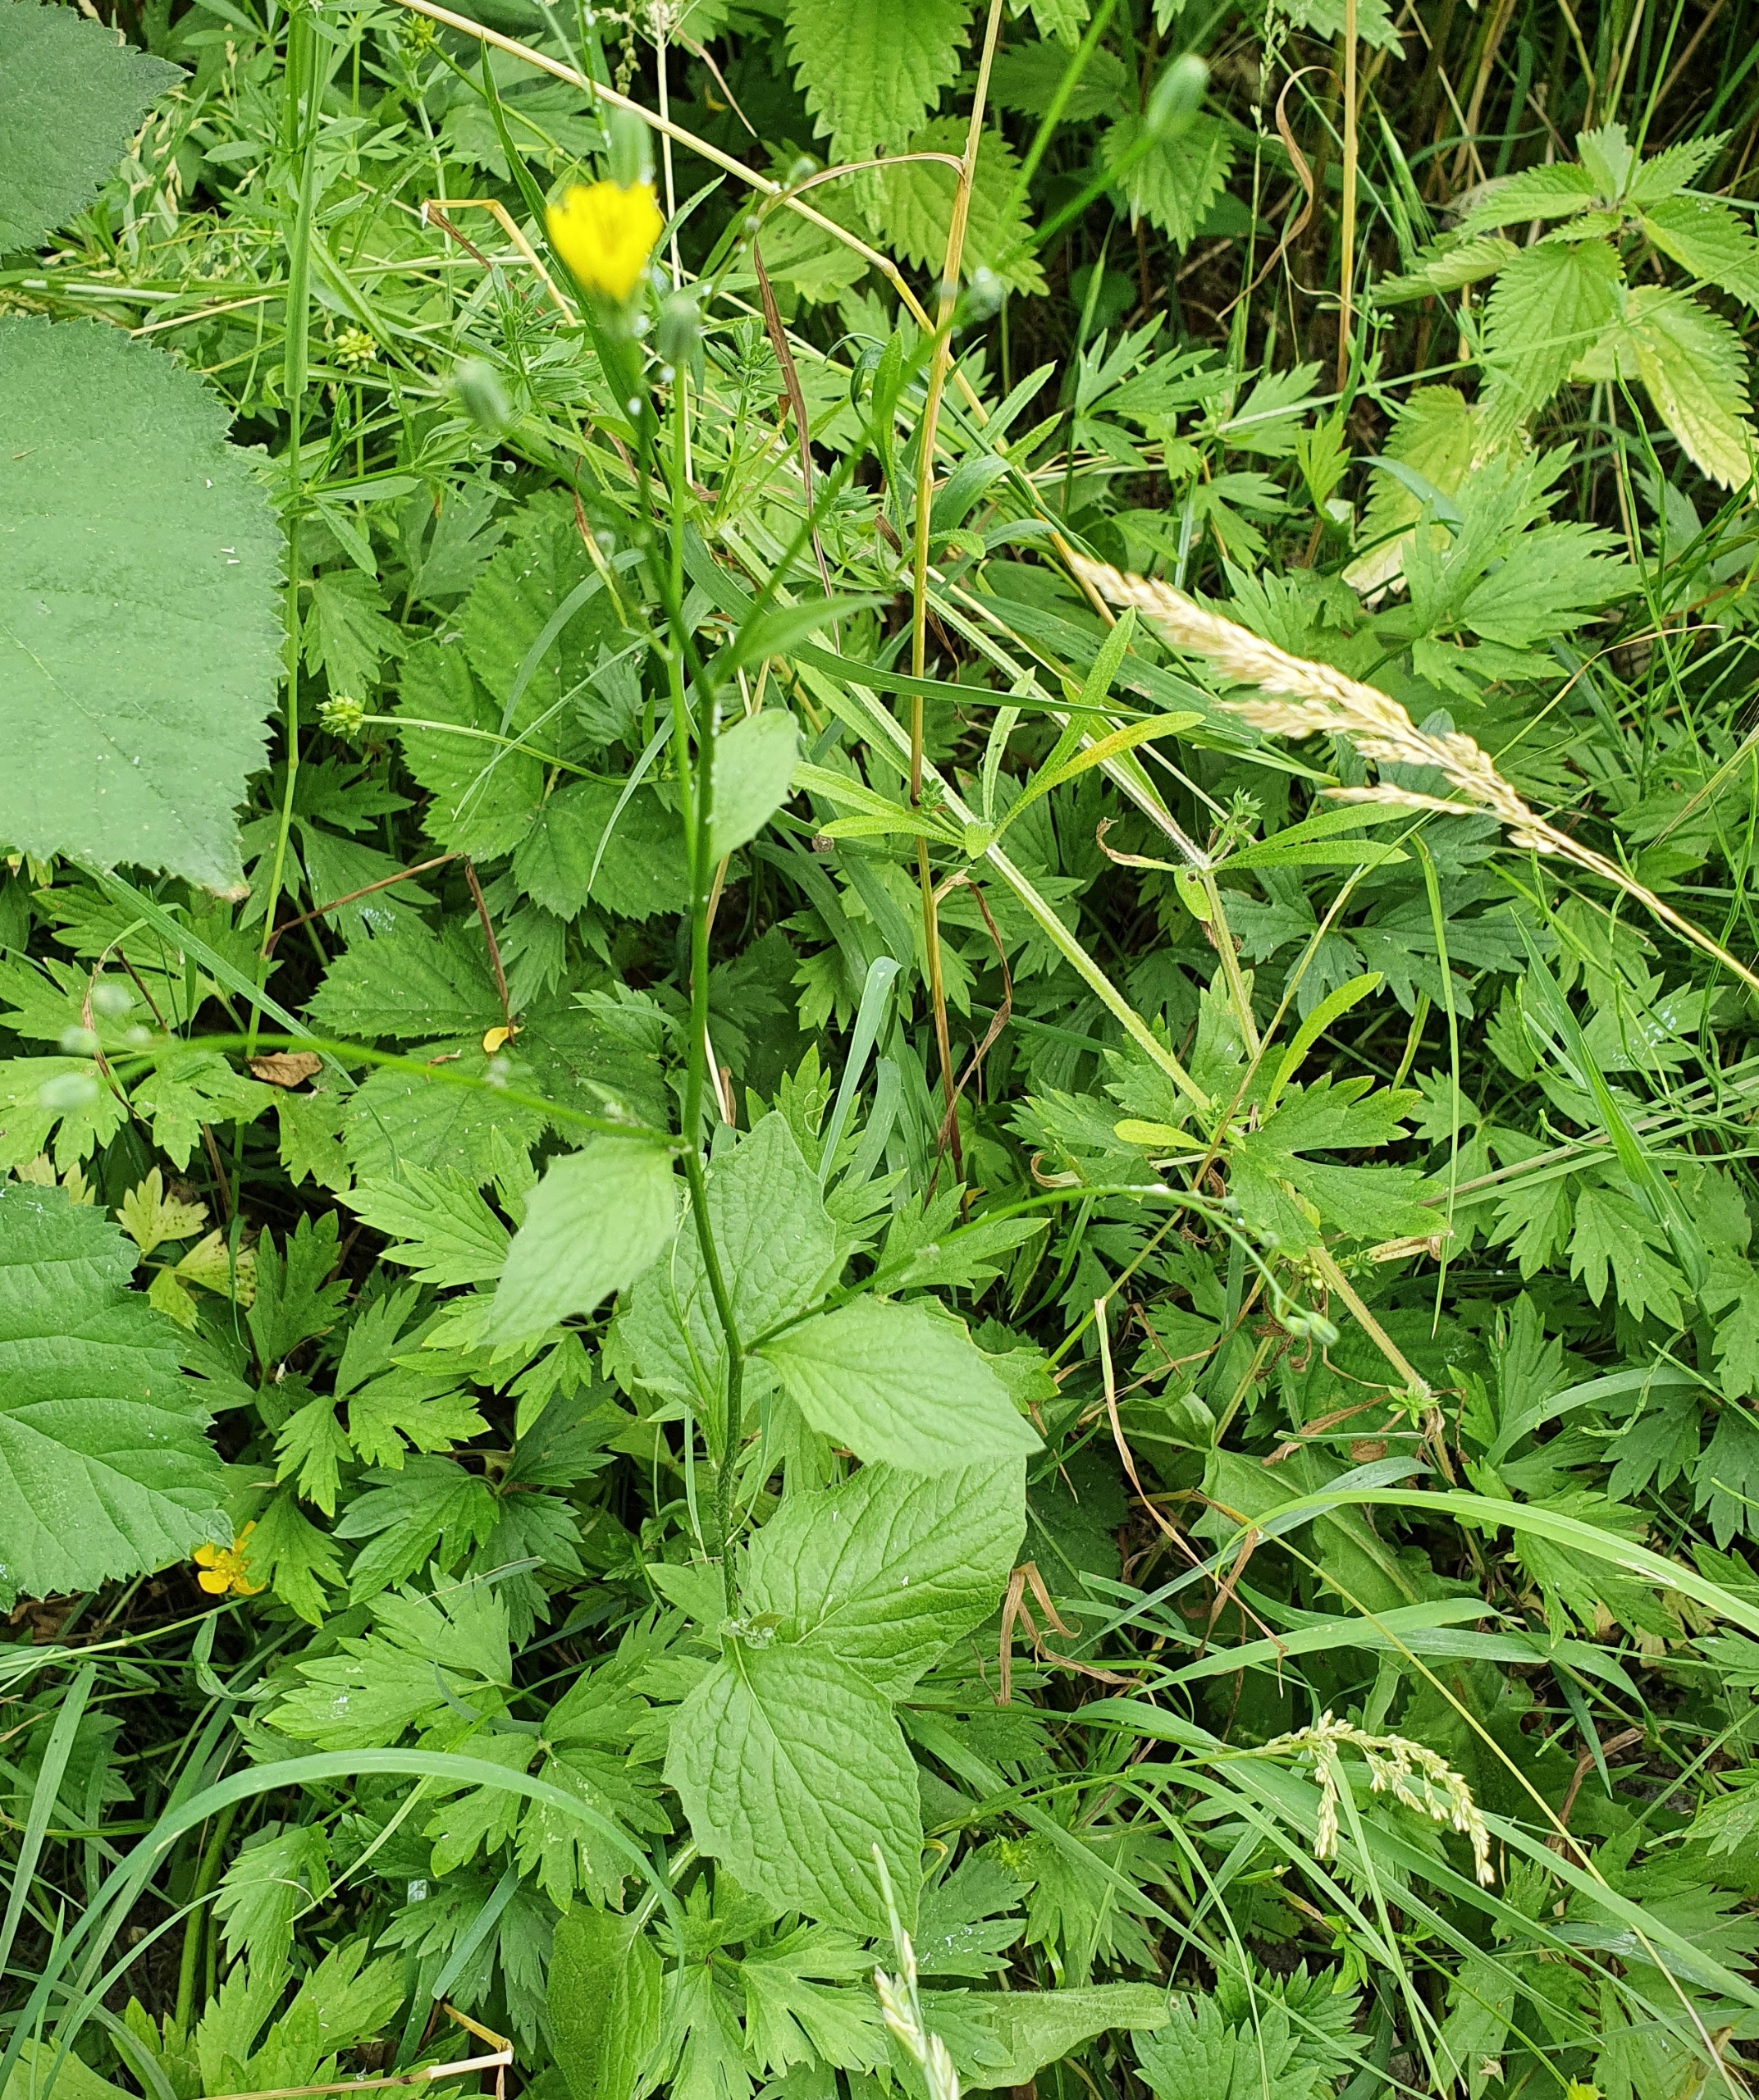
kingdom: Plantae
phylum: Tracheophyta
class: Magnoliopsida
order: Asterales
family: Asteraceae
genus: Lapsana
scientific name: Lapsana communis
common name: Haremad
